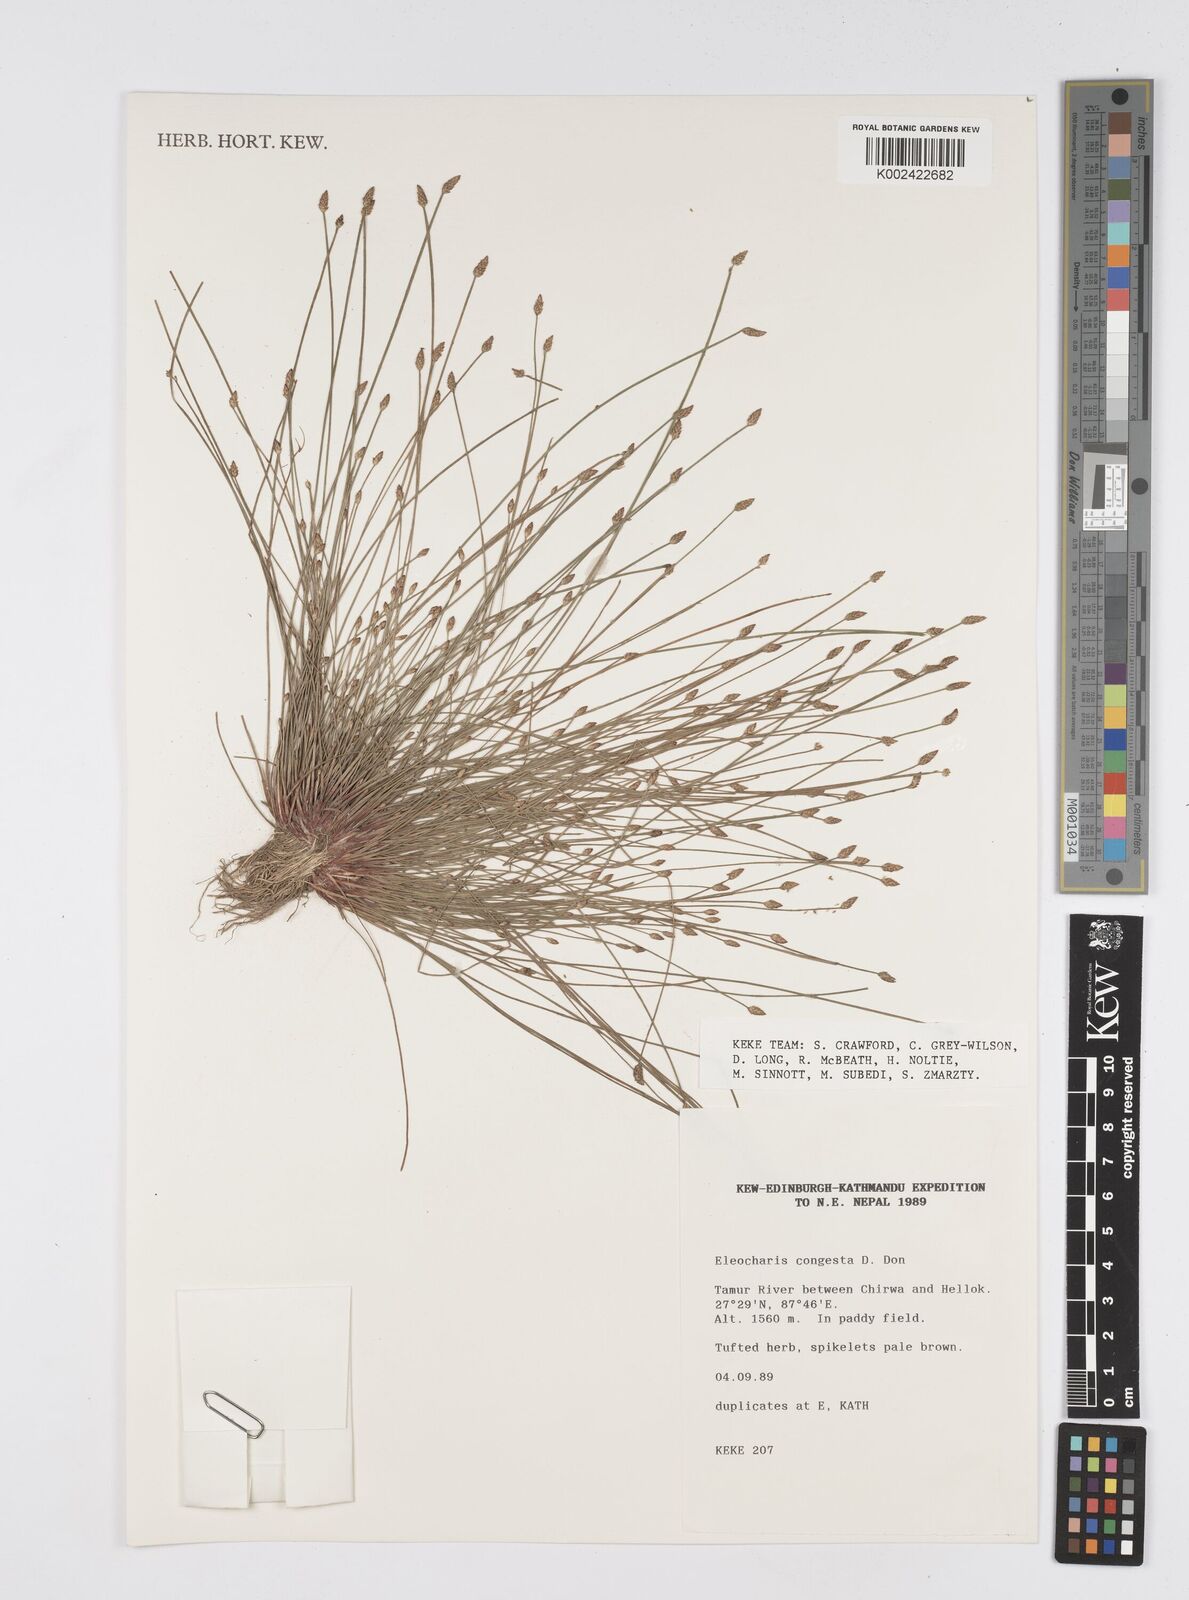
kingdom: Plantae
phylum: Tracheophyta
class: Liliopsida
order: Poales
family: Cyperaceae
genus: Eleocharis
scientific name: Eleocharis congesta
